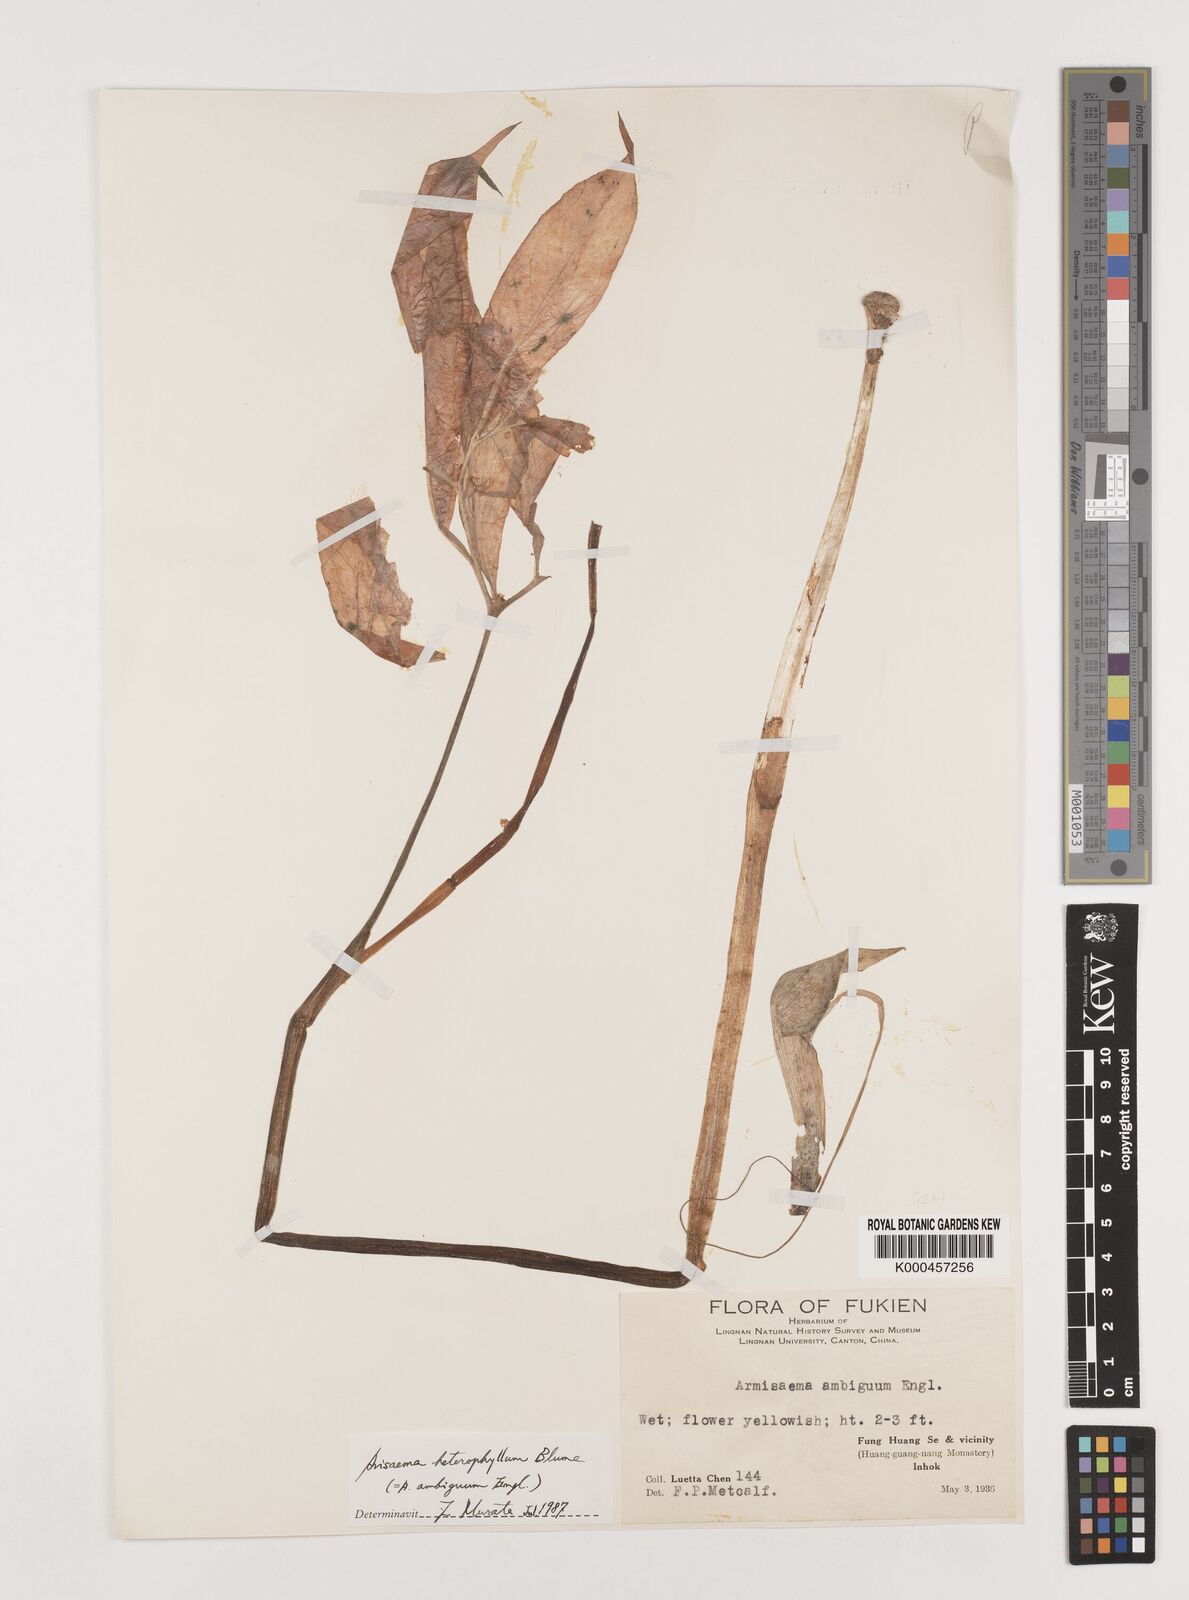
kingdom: Plantae
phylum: Tracheophyta
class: Liliopsida
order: Alismatales
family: Araceae
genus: Arisaema
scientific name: Arisaema heterophyllum
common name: Dancing crane cobra lily
